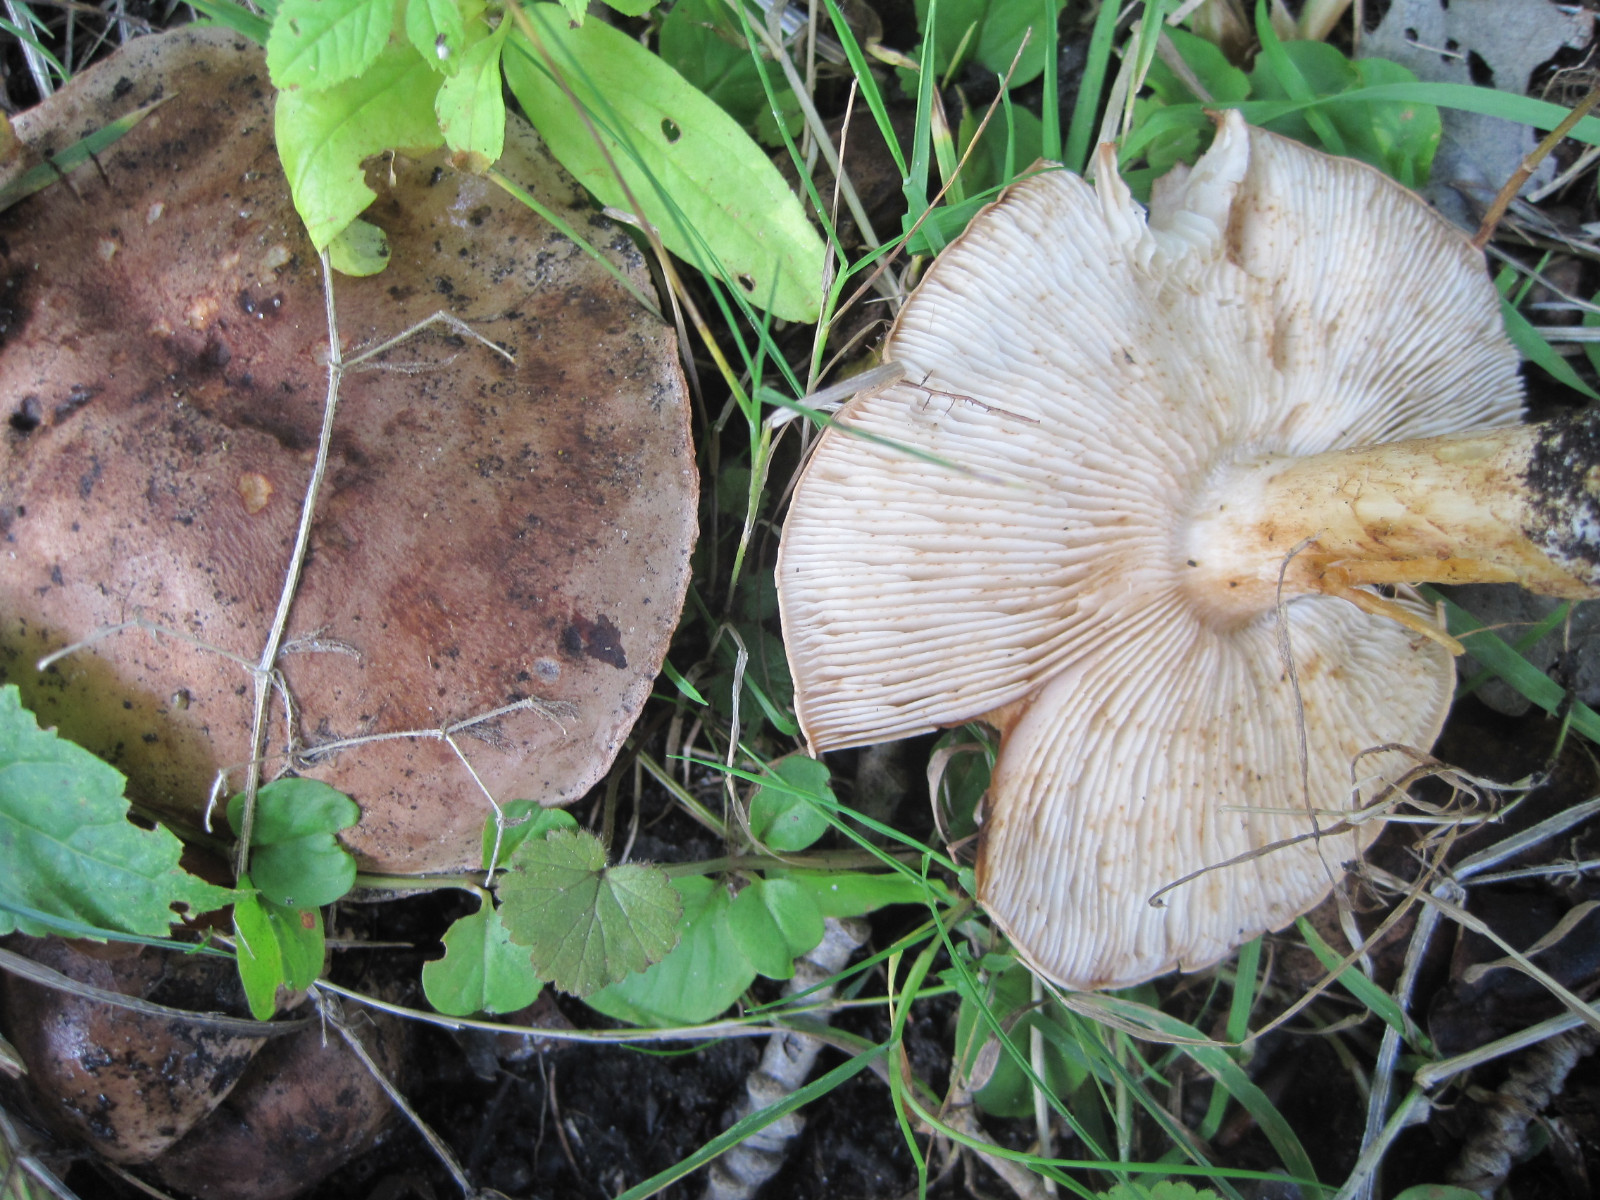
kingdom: Fungi
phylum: Basidiomycota
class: Agaricomycetes
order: Agaricales
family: Tricholomataceae
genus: Tricholoma
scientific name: Tricholoma populinum
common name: poppel-ridderhat
